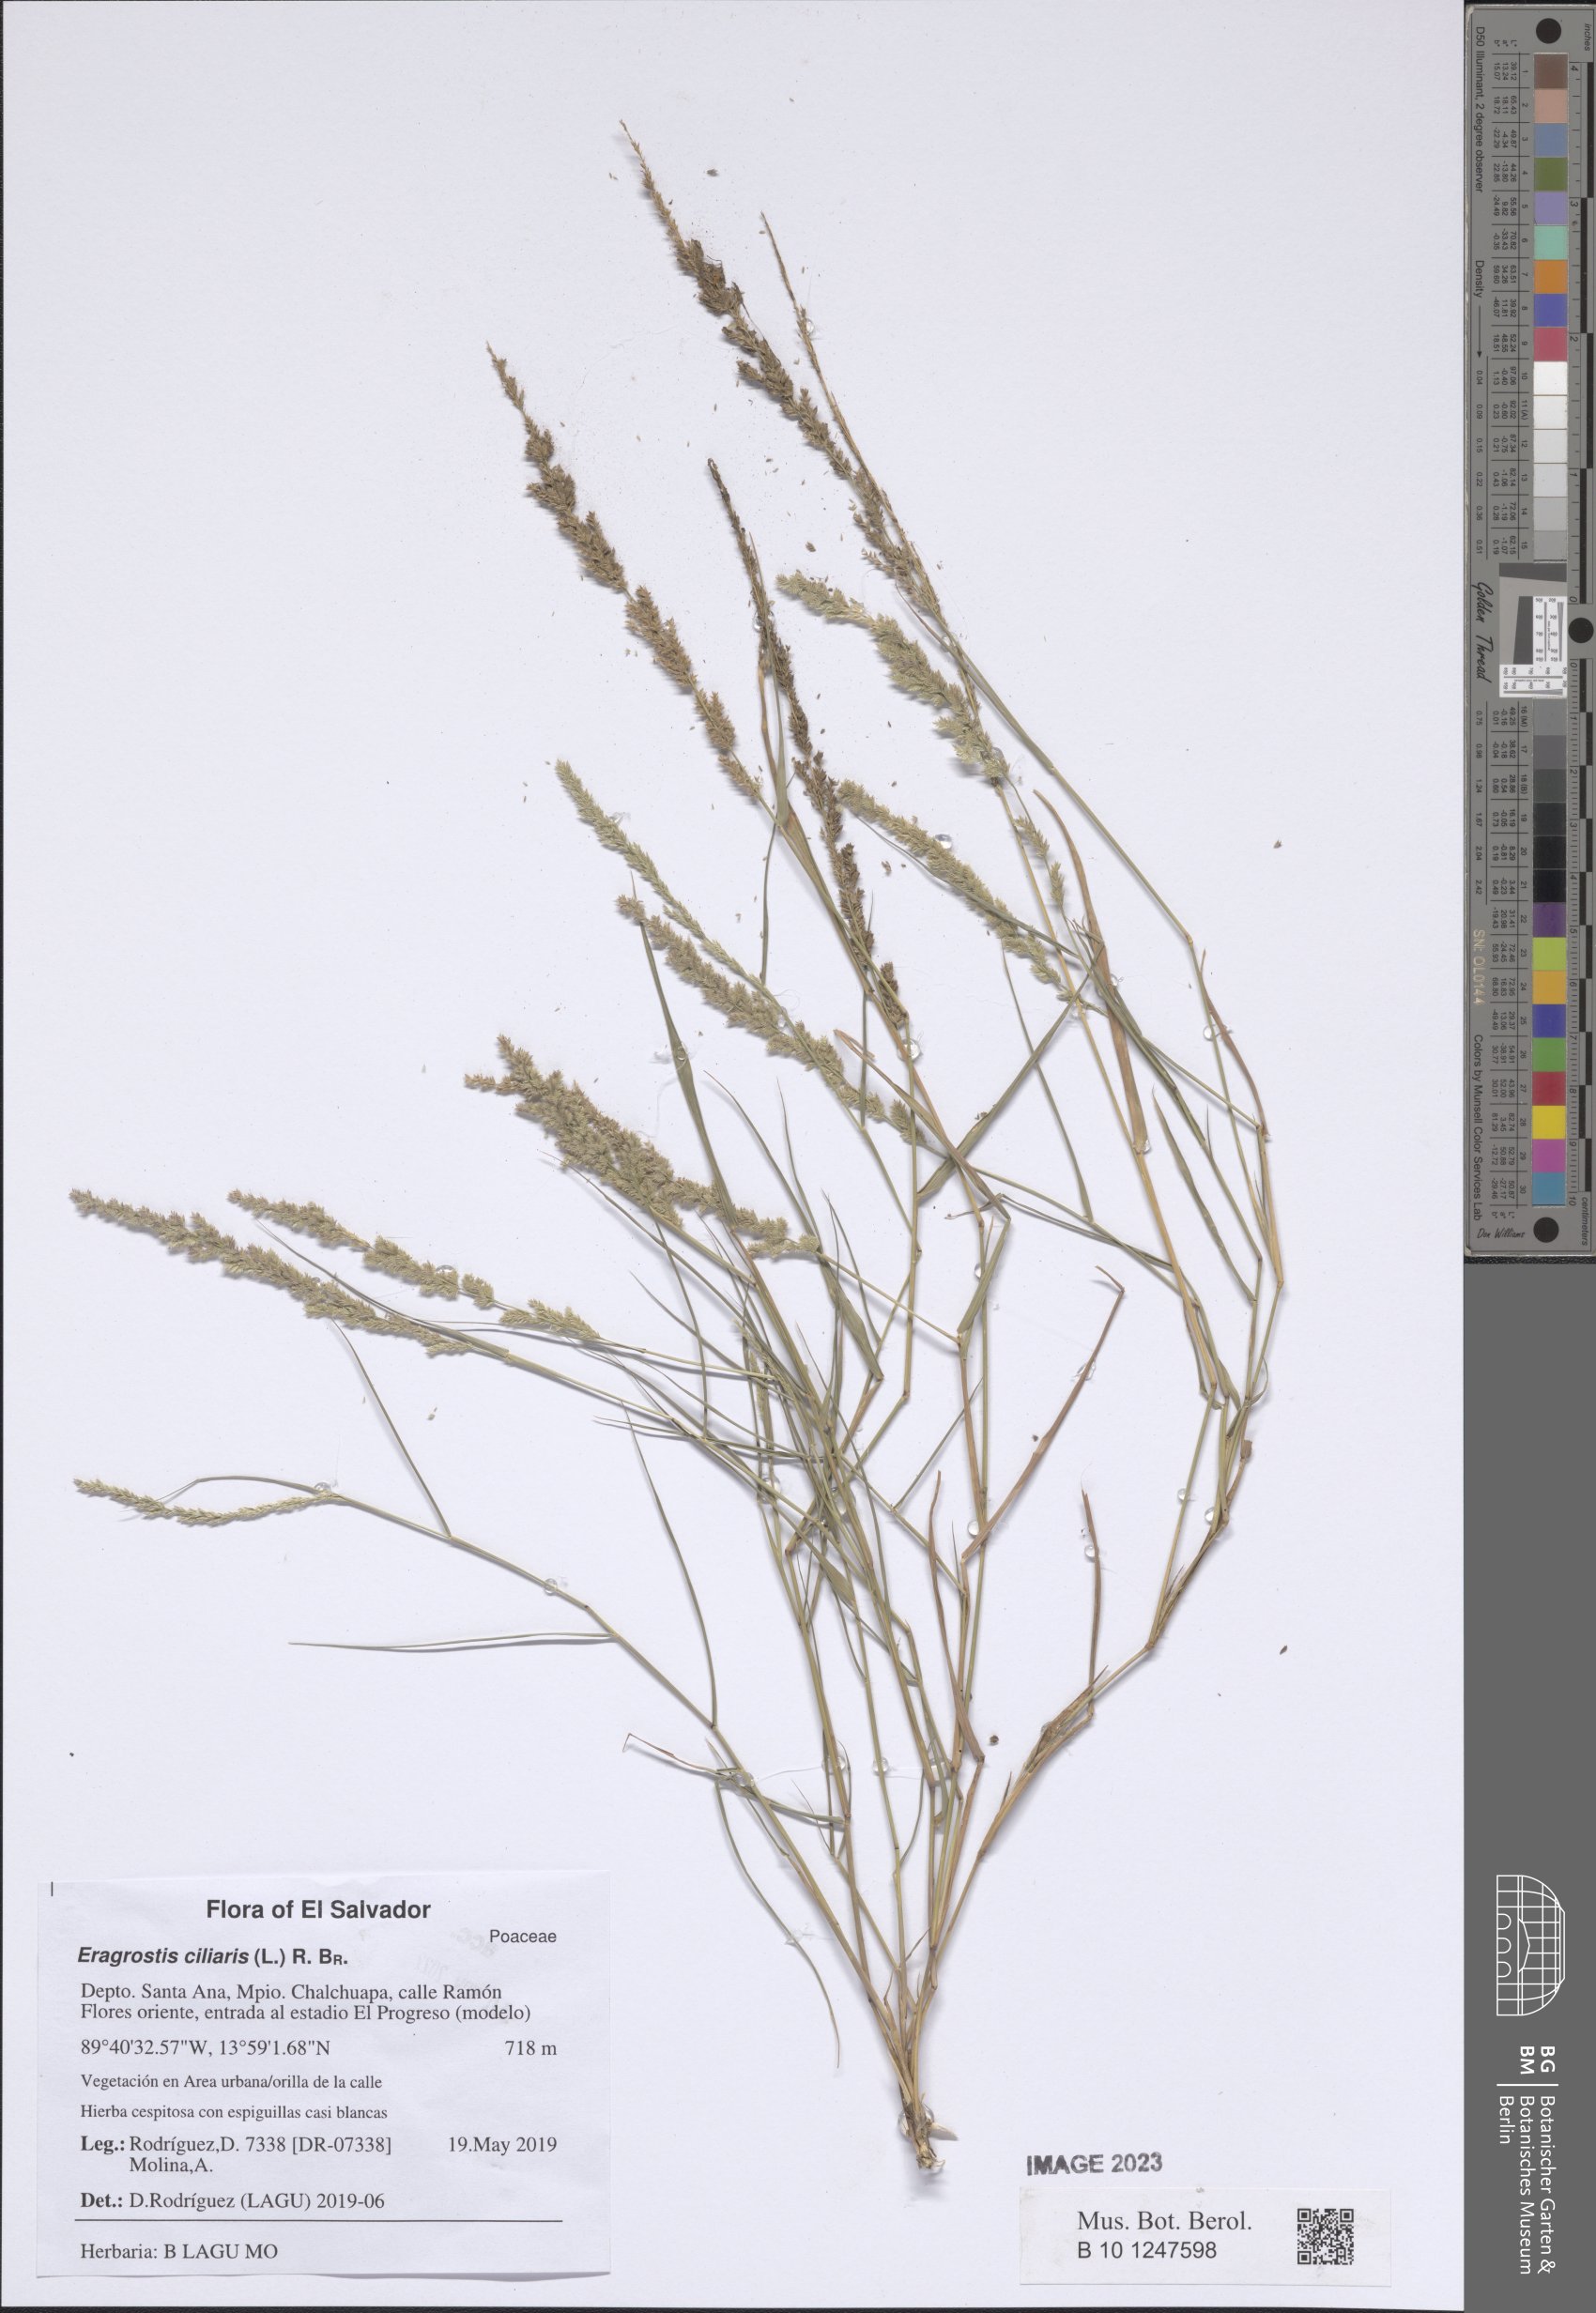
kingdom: Plantae
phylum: Tracheophyta
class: Liliopsida
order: Poales
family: Poaceae
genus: Eragrostis
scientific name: Eragrostis ciliaris
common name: Gophertail lovegrass
